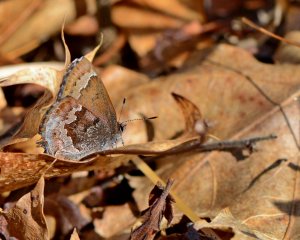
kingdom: Animalia
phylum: Arthropoda
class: Insecta
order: Lepidoptera
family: Lycaenidae
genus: Thecla
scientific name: Thecla irus
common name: Frosted Elfin
